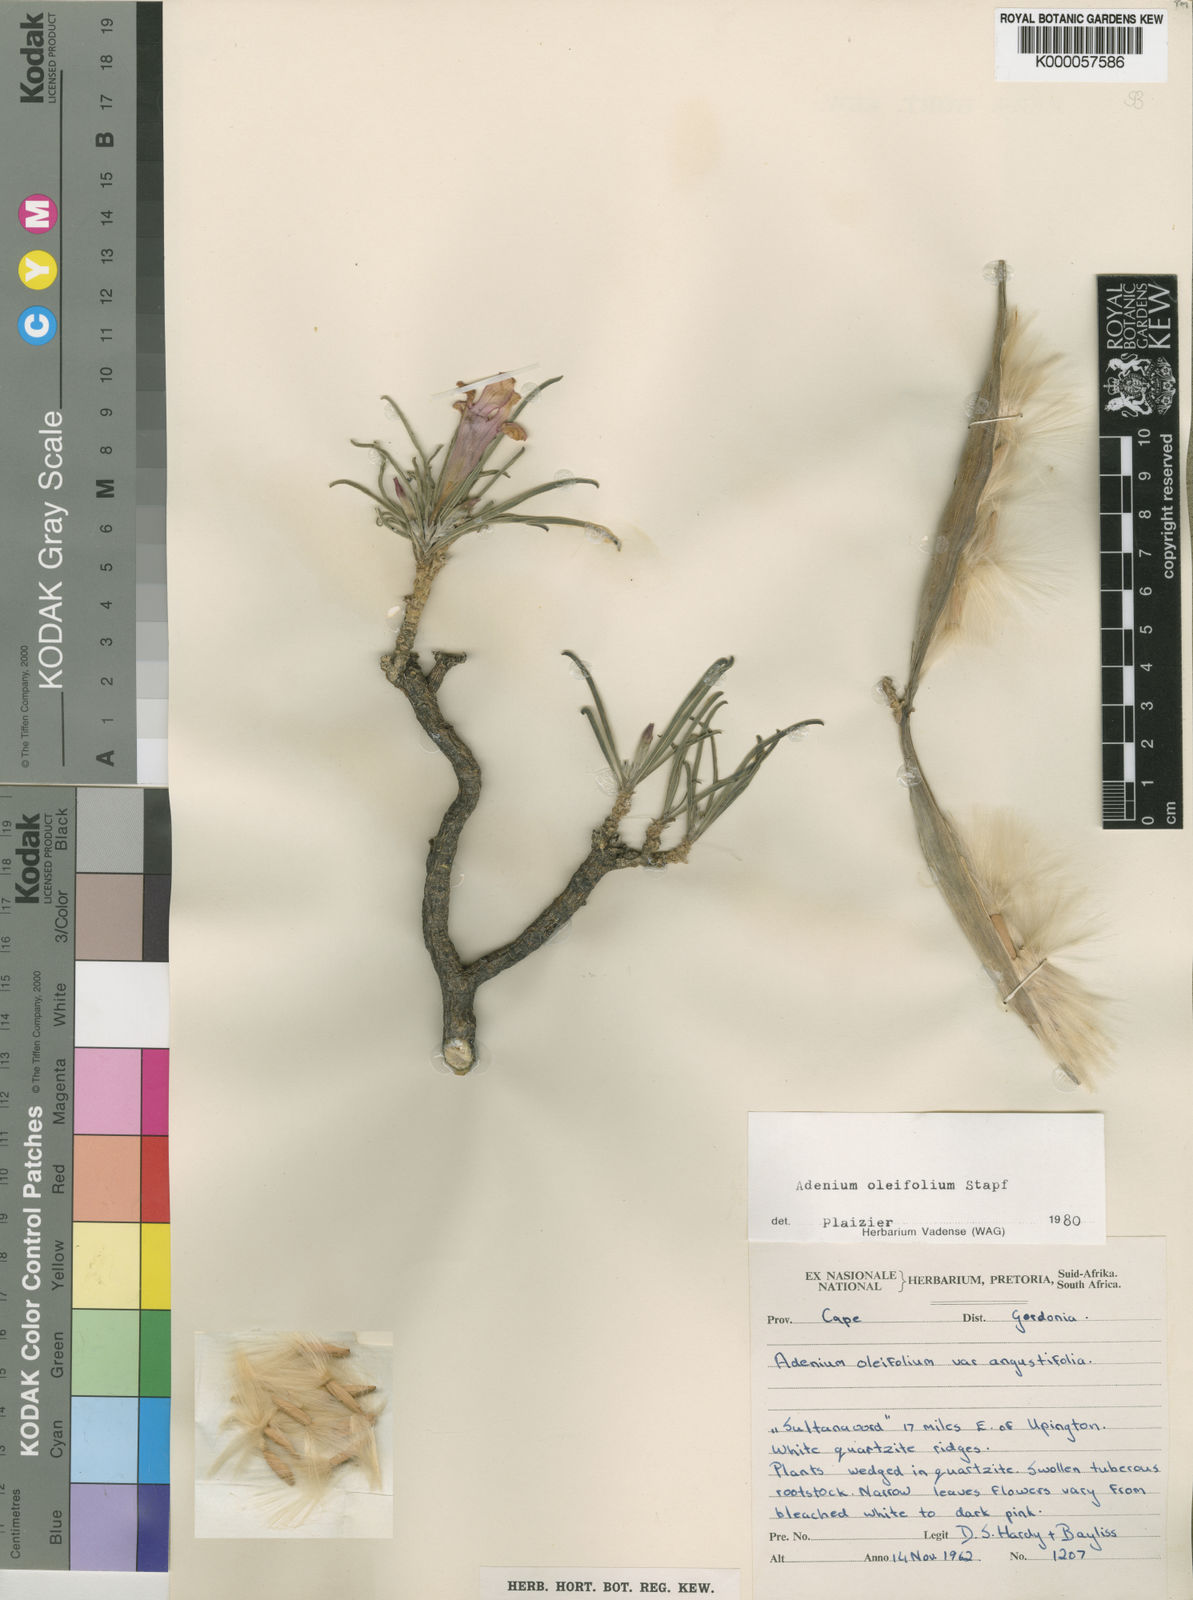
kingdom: Plantae
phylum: Tracheophyta
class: Magnoliopsida
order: Gentianales
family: Apocynaceae
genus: Adenium
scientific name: Adenium obesum
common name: Desert-rose
